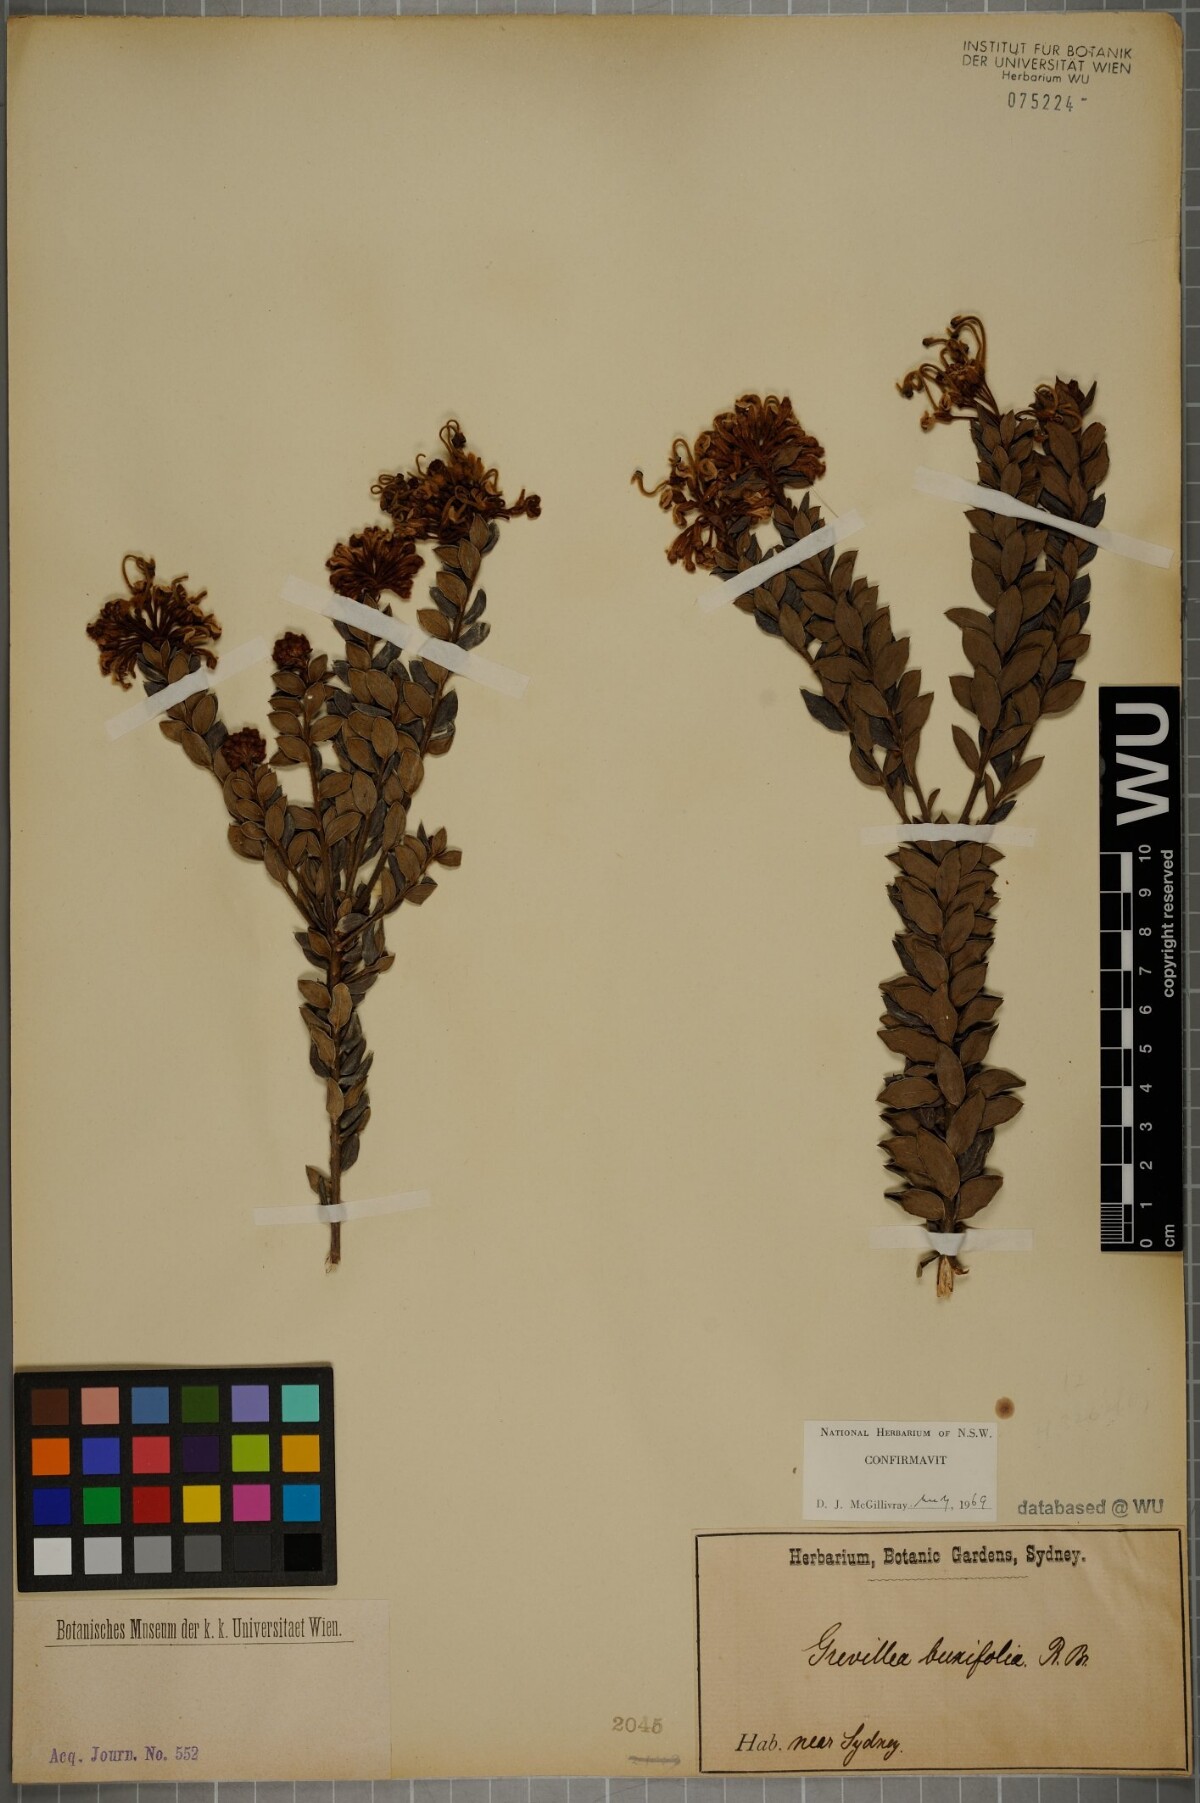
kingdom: Plantae
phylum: Tracheophyta
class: Magnoliopsida
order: Proteales
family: Proteaceae
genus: Grevillea
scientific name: Grevillea buxifolia
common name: Grey spiderflower
